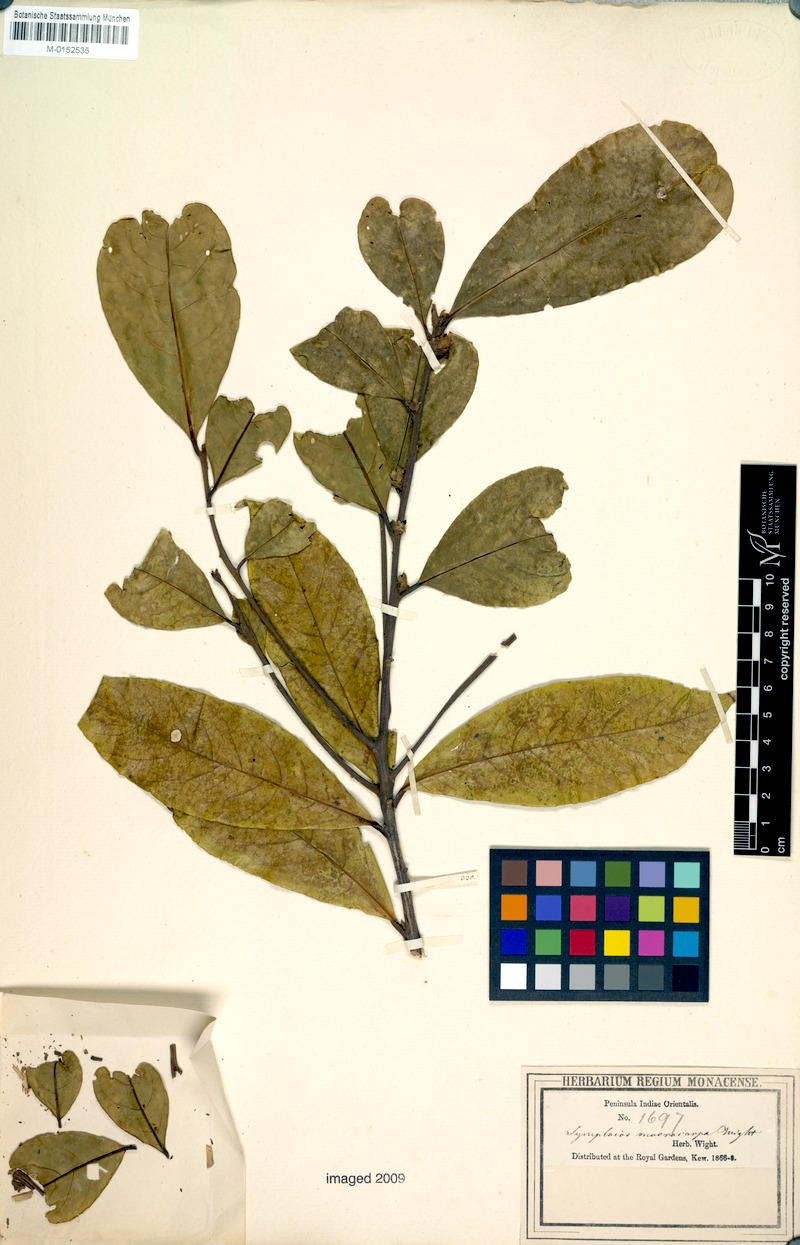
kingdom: Plantae
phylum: Tracheophyta
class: Magnoliopsida
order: Ericales
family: Symplocaceae
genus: Symplocos
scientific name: Symplocos macrocarpa
